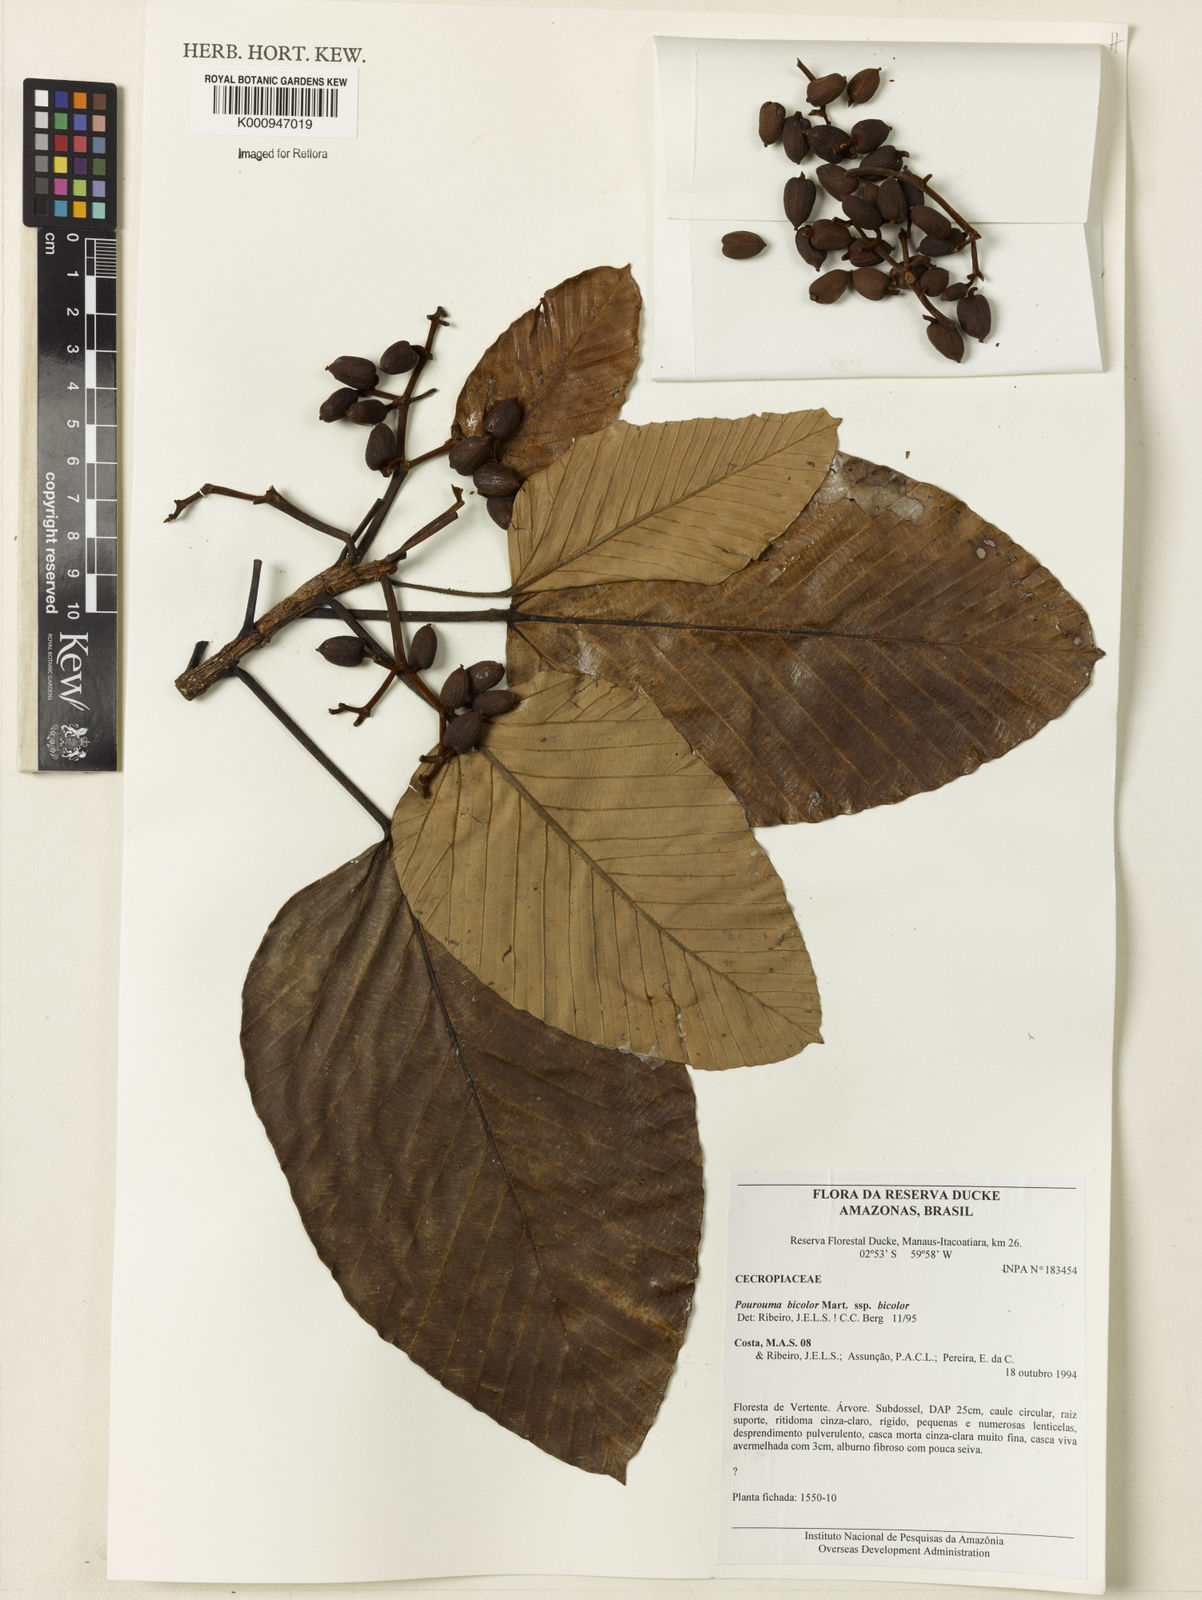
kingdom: Plantae
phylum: Tracheophyta
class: Magnoliopsida
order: Rosales
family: Urticaceae
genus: Pourouma
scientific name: Pourouma bicolor
